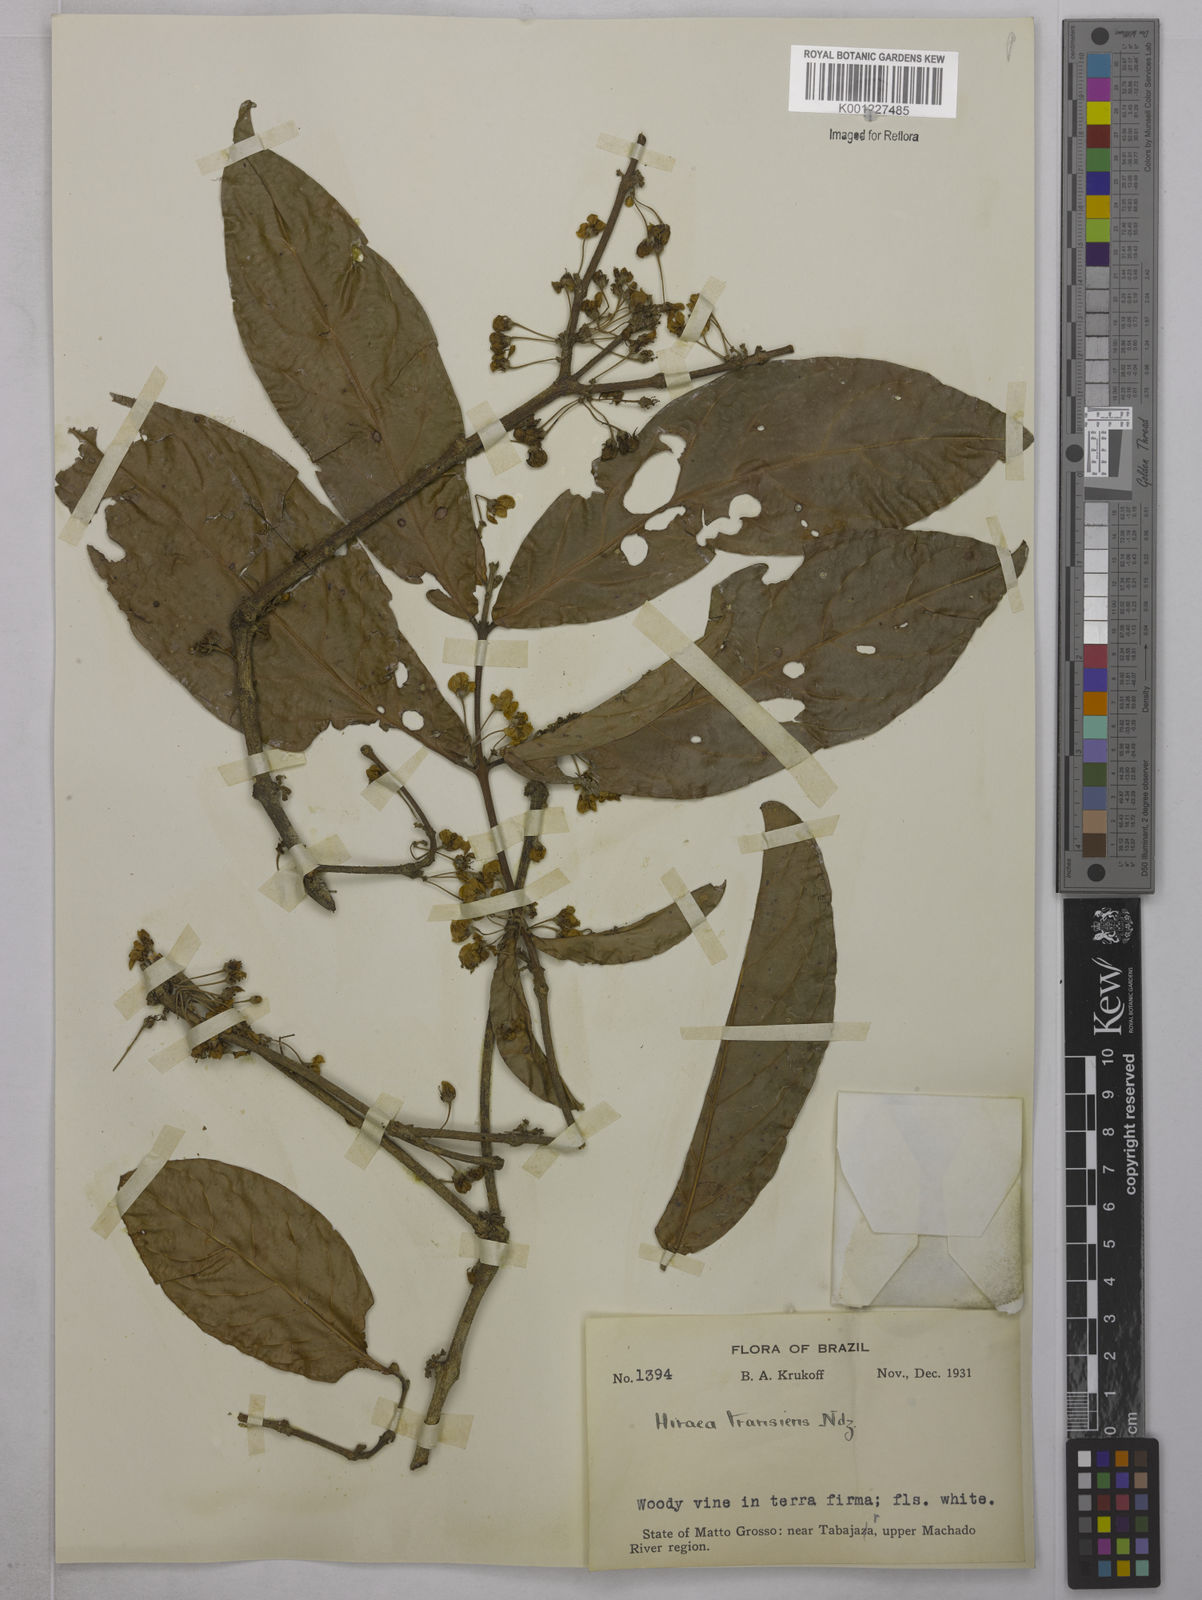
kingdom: Plantae
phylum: Tracheophyta
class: Magnoliopsida
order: Malpighiales
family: Malpighiaceae
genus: Hiraea
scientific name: Hiraea transiens
